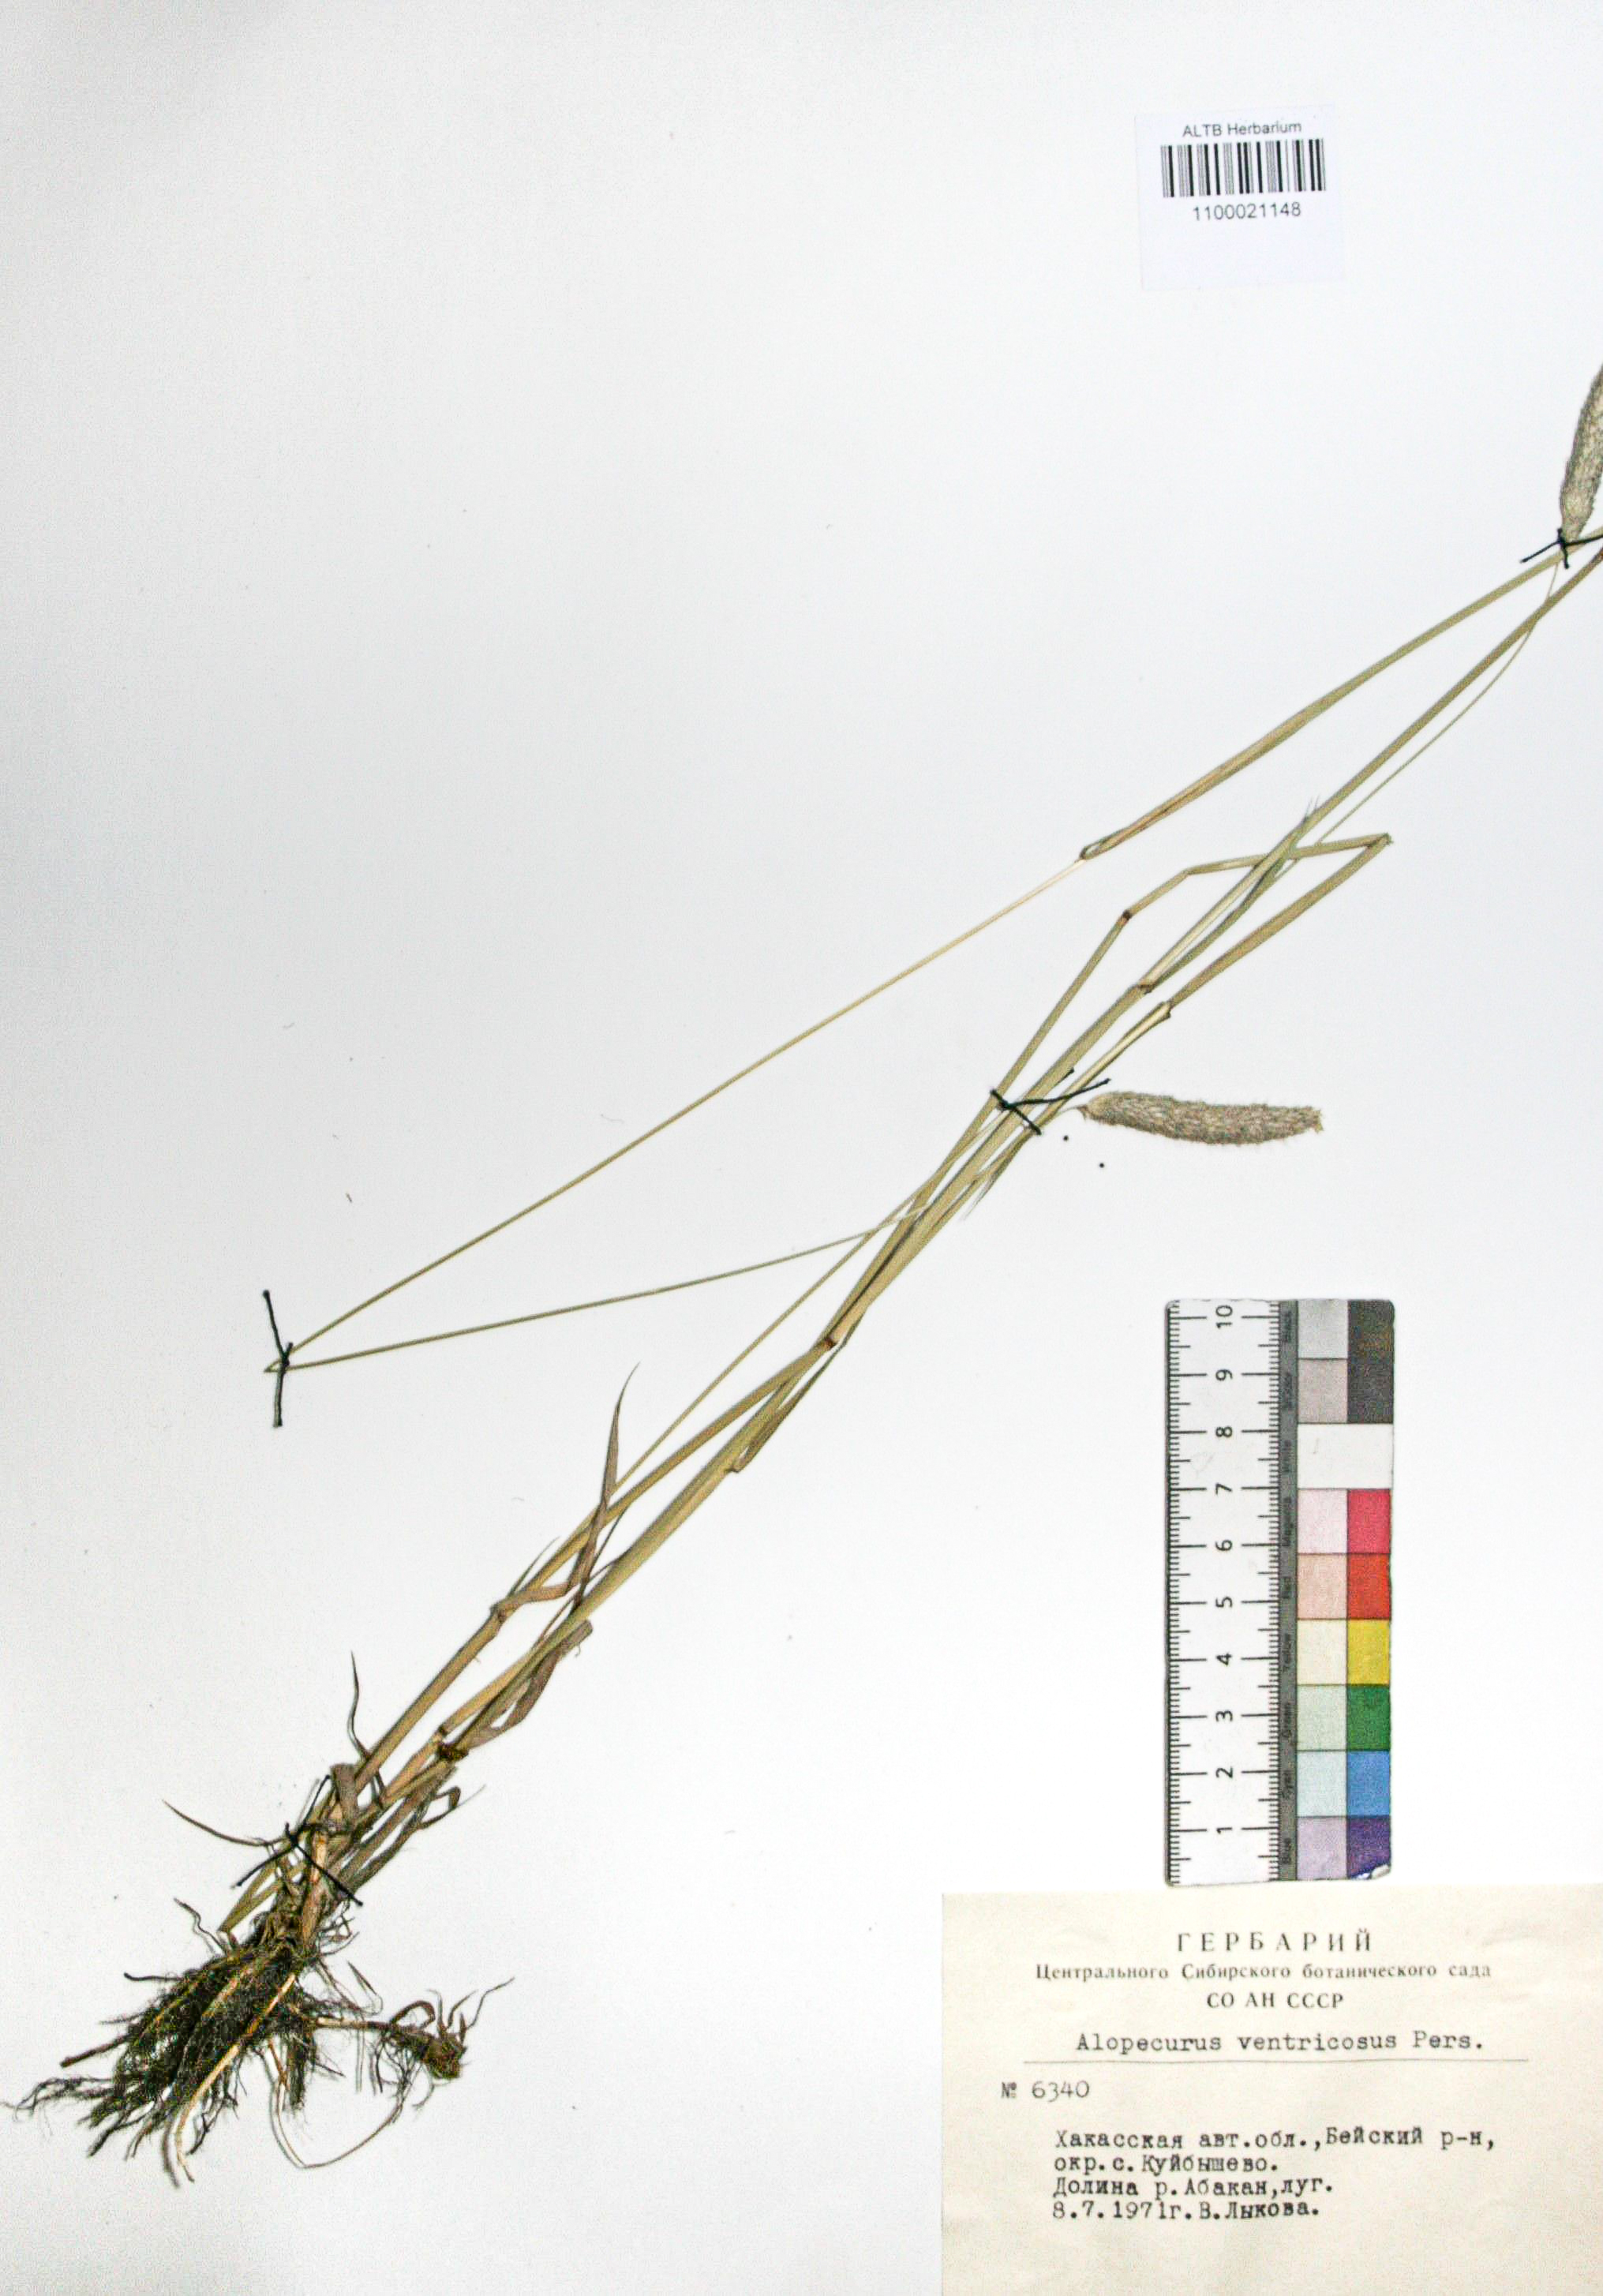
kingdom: Plantae
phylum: Tracheophyta
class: Liliopsida
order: Poales
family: Poaceae
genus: Alopecurus
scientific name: Alopecurus arundinaceus
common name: Creeping meadow foxtail
